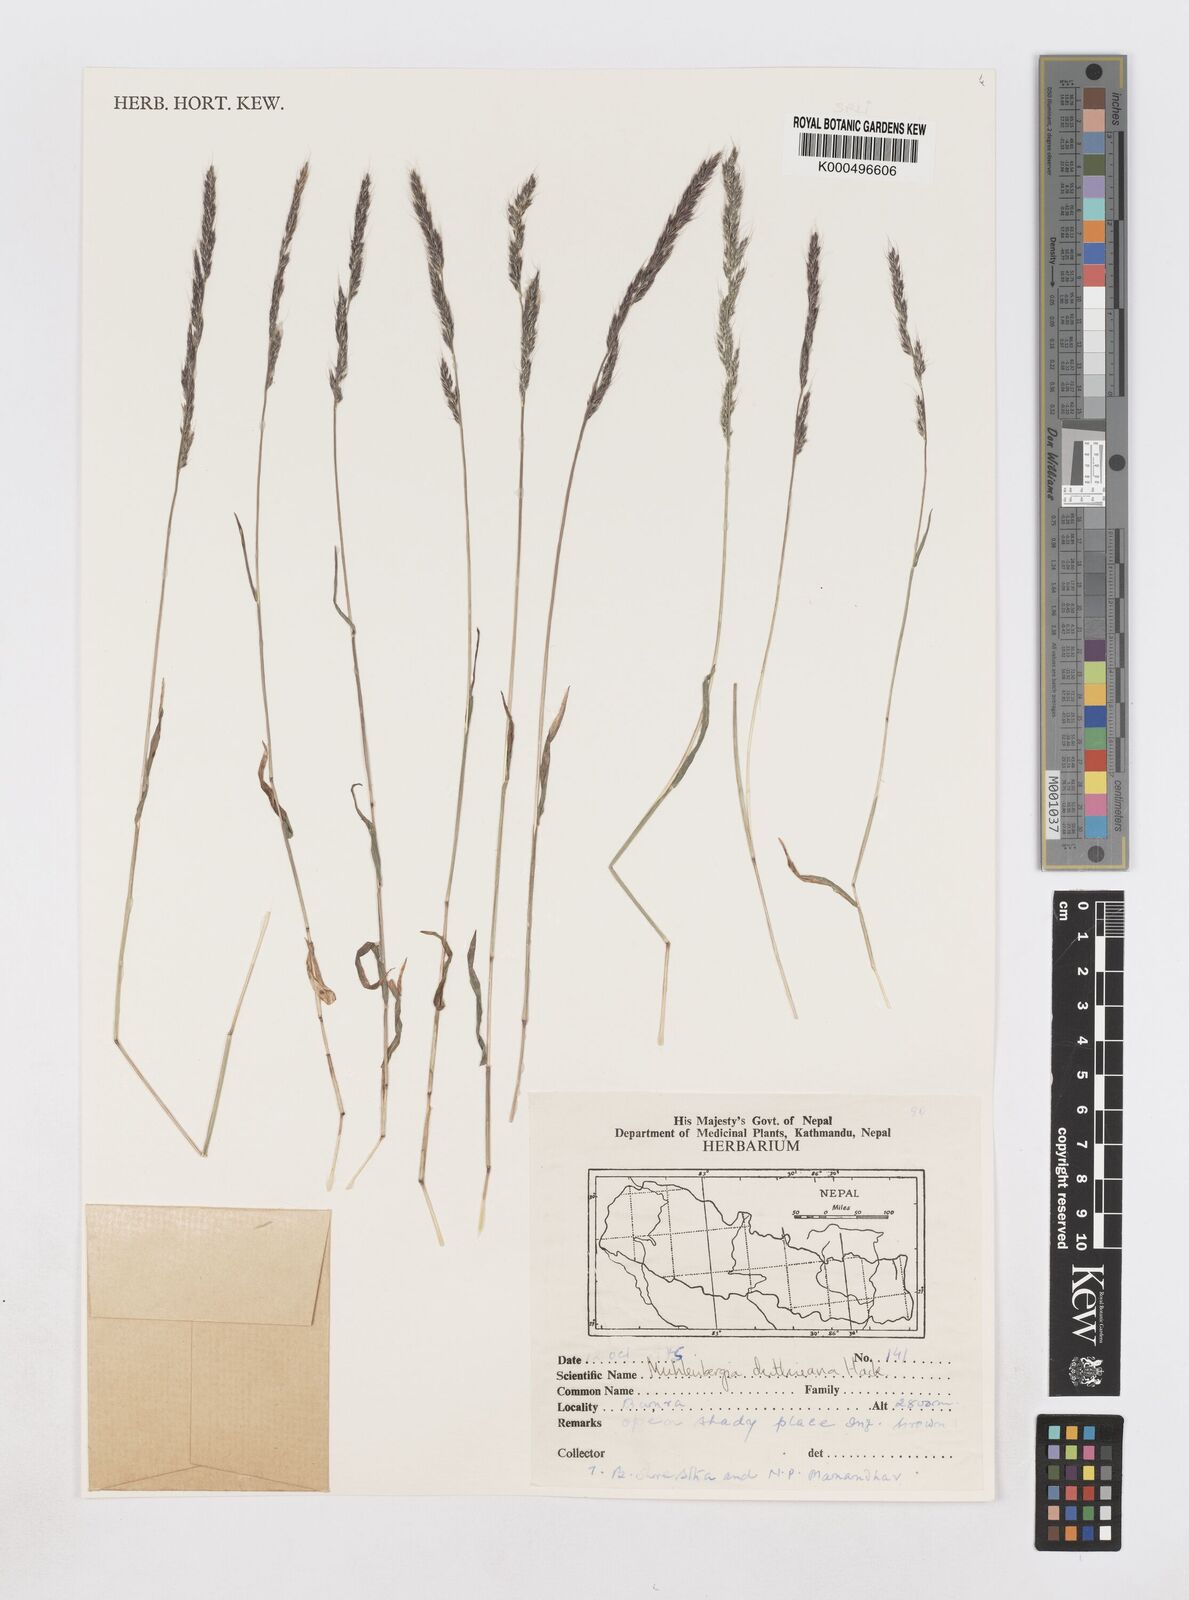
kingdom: Plantae
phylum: Tracheophyta
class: Liliopsida
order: Poales
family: Poaceae
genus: Muhlenbergia
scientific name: Muhlenbergia duthieana
